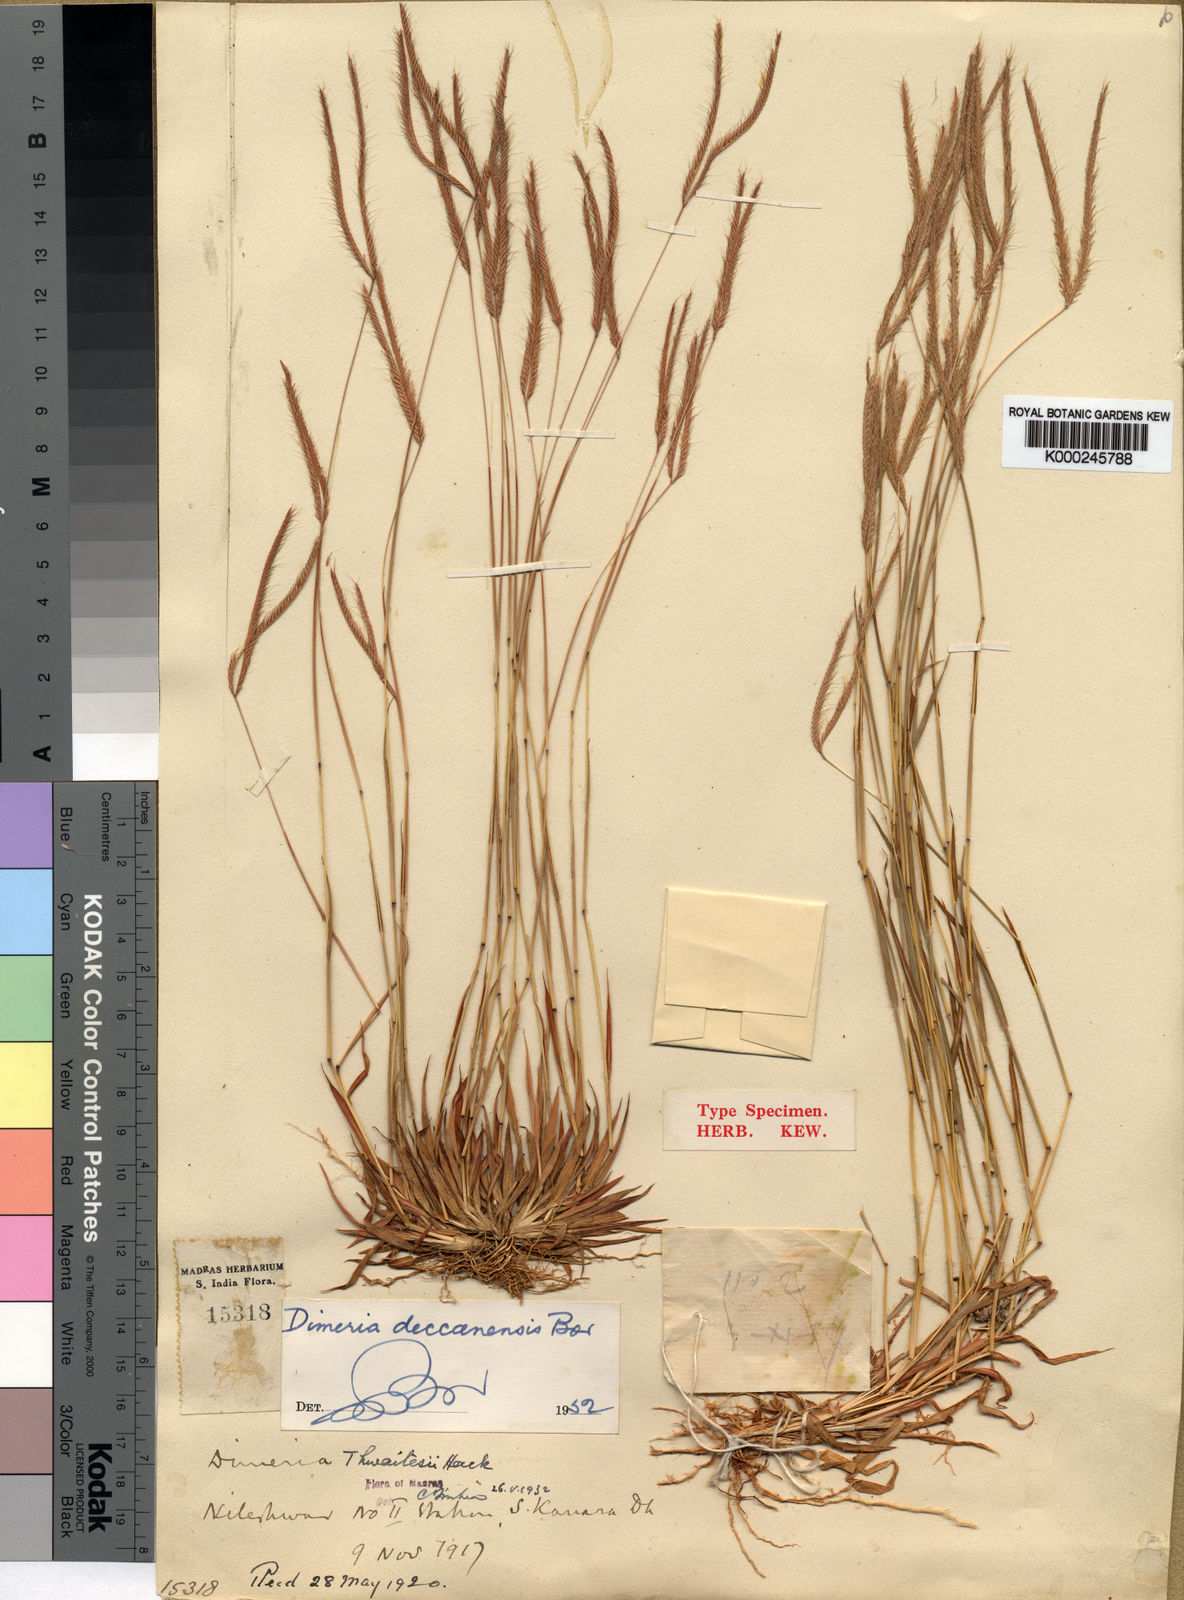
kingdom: Plantae
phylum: Tracheophyta
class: Liliopsida
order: Poales
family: Poaceae
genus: Dimeria
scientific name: Dimeria deccanensis
